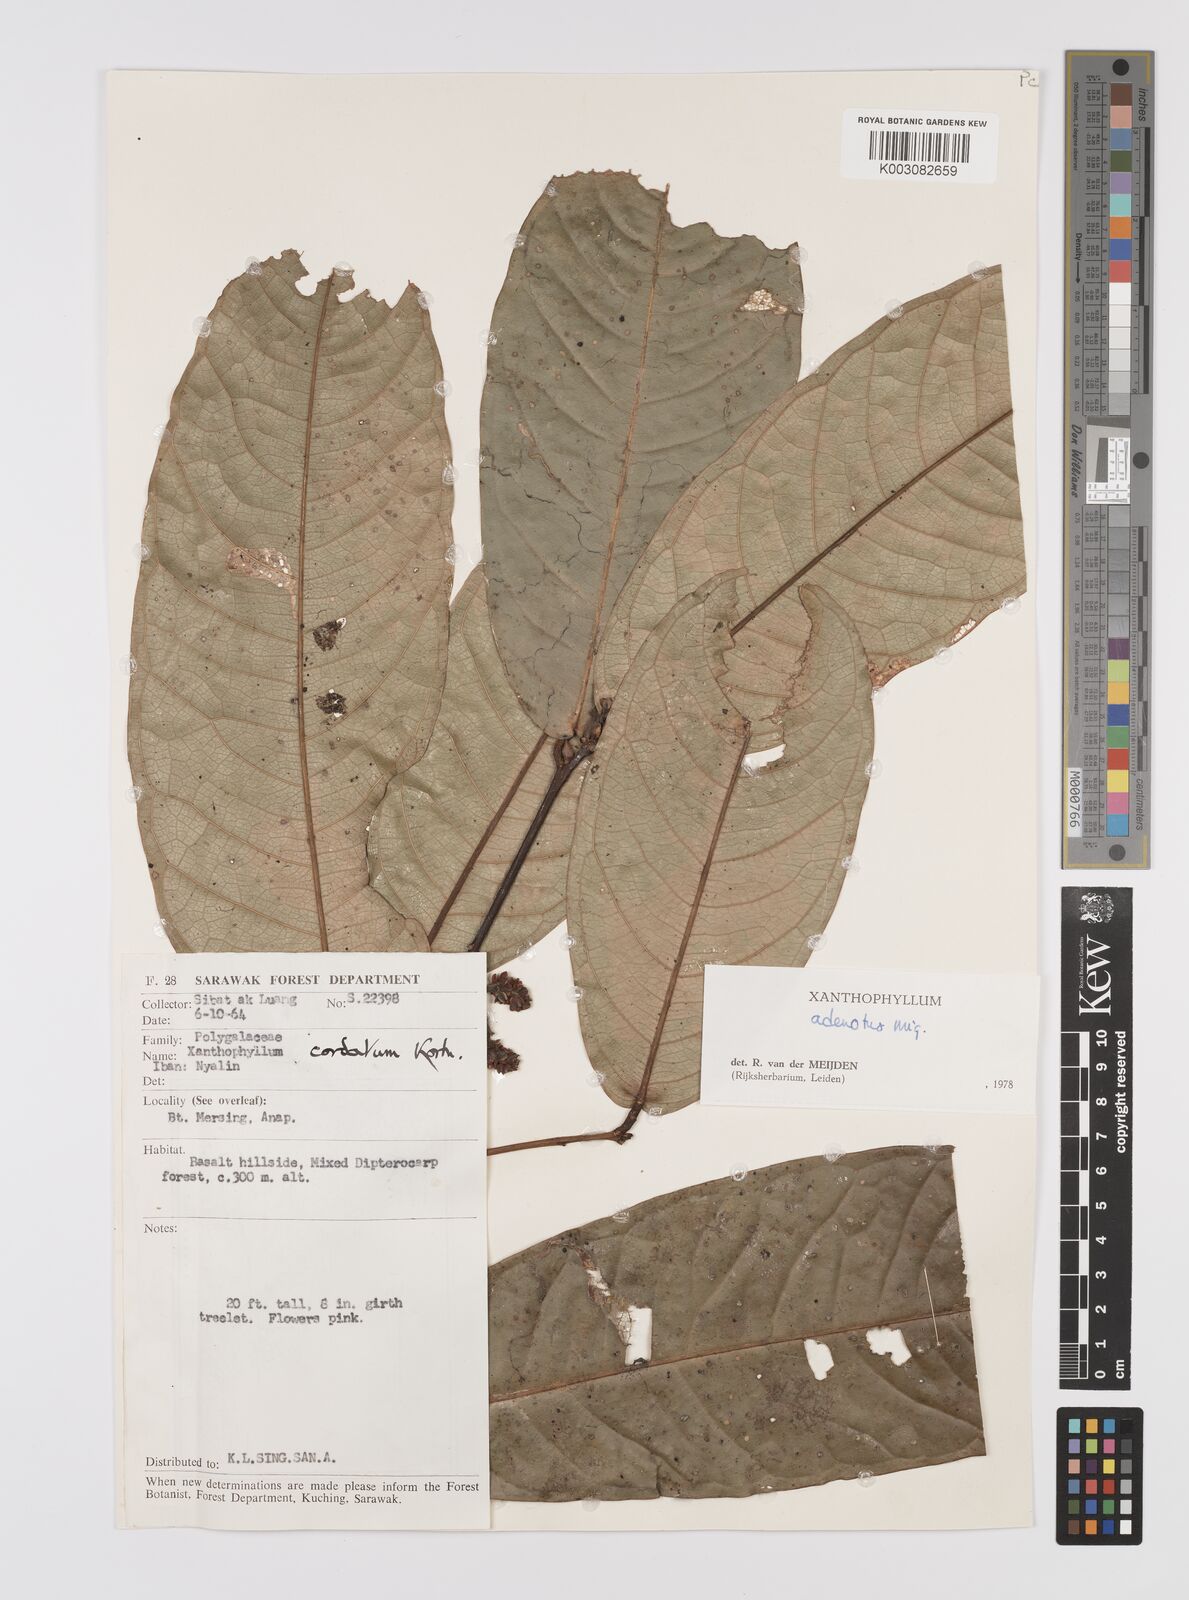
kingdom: Plantae
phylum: Tracheophyta
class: Magnoliopsida
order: Fabales
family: Polygalaceae
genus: Xanthophyllum
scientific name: Xanthophyllum adenotus
